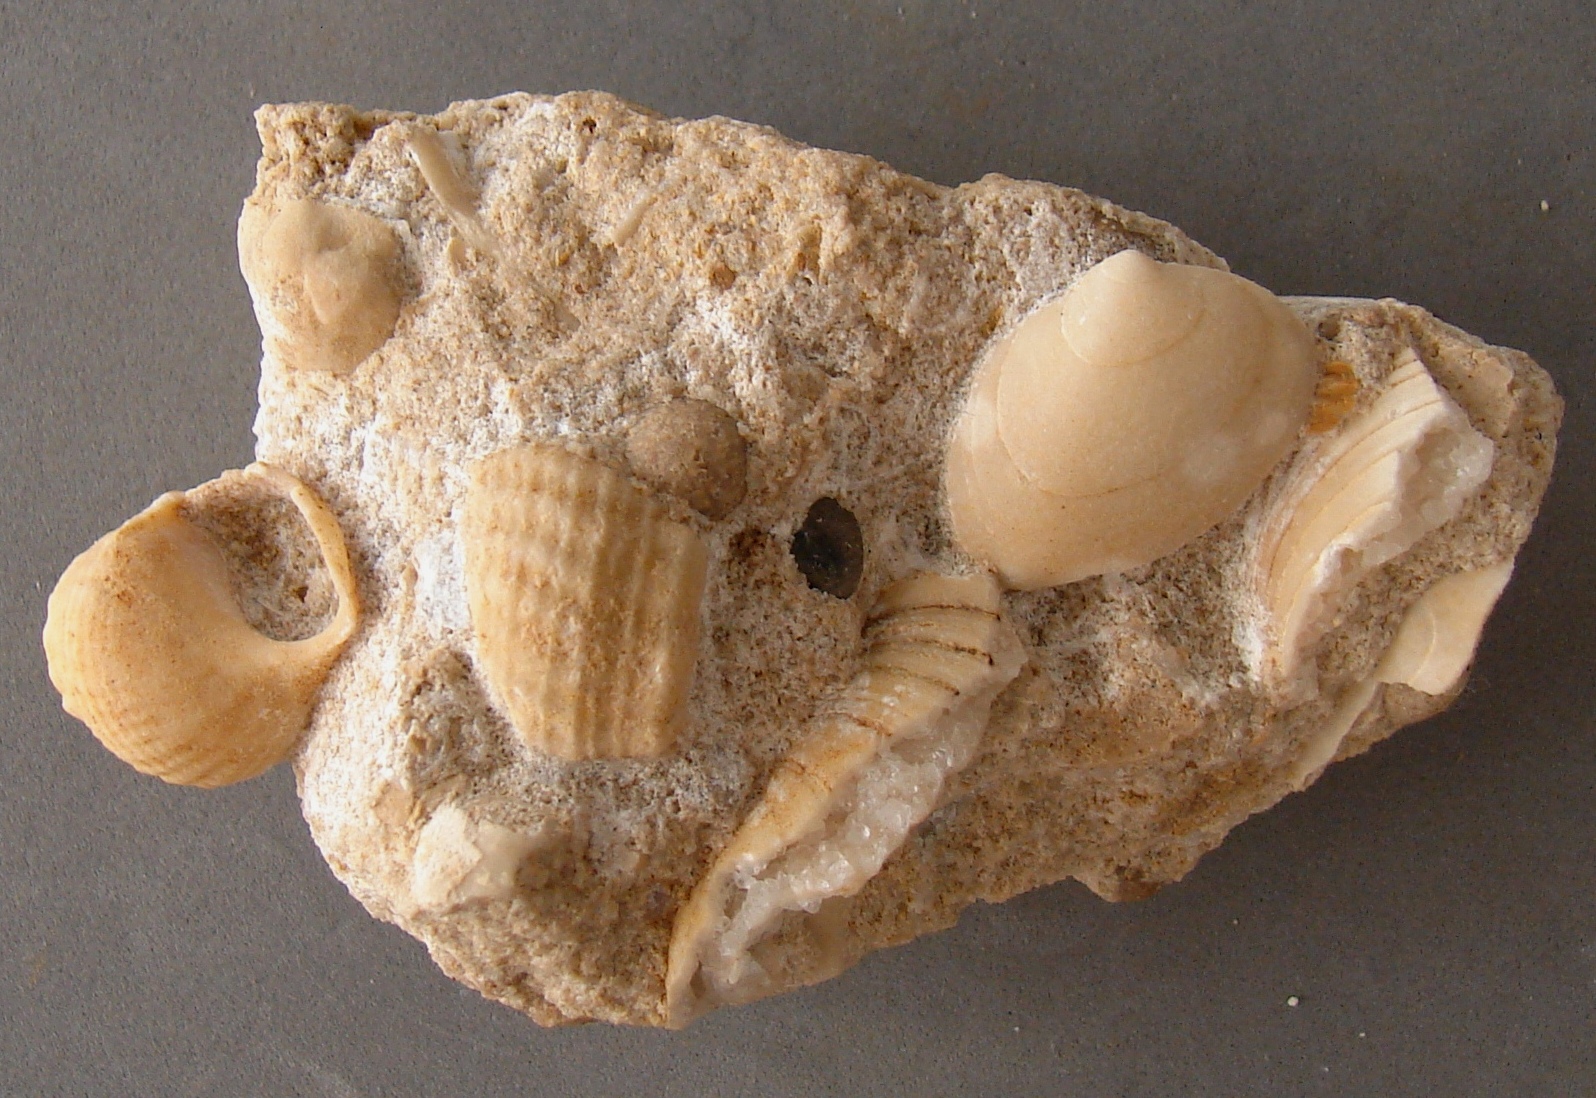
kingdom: Animalia
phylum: Mollusca
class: Gastropoda
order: Neogastropoda
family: Purpurinidae
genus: Microschiza
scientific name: Microschiza Turbo semiornatus
